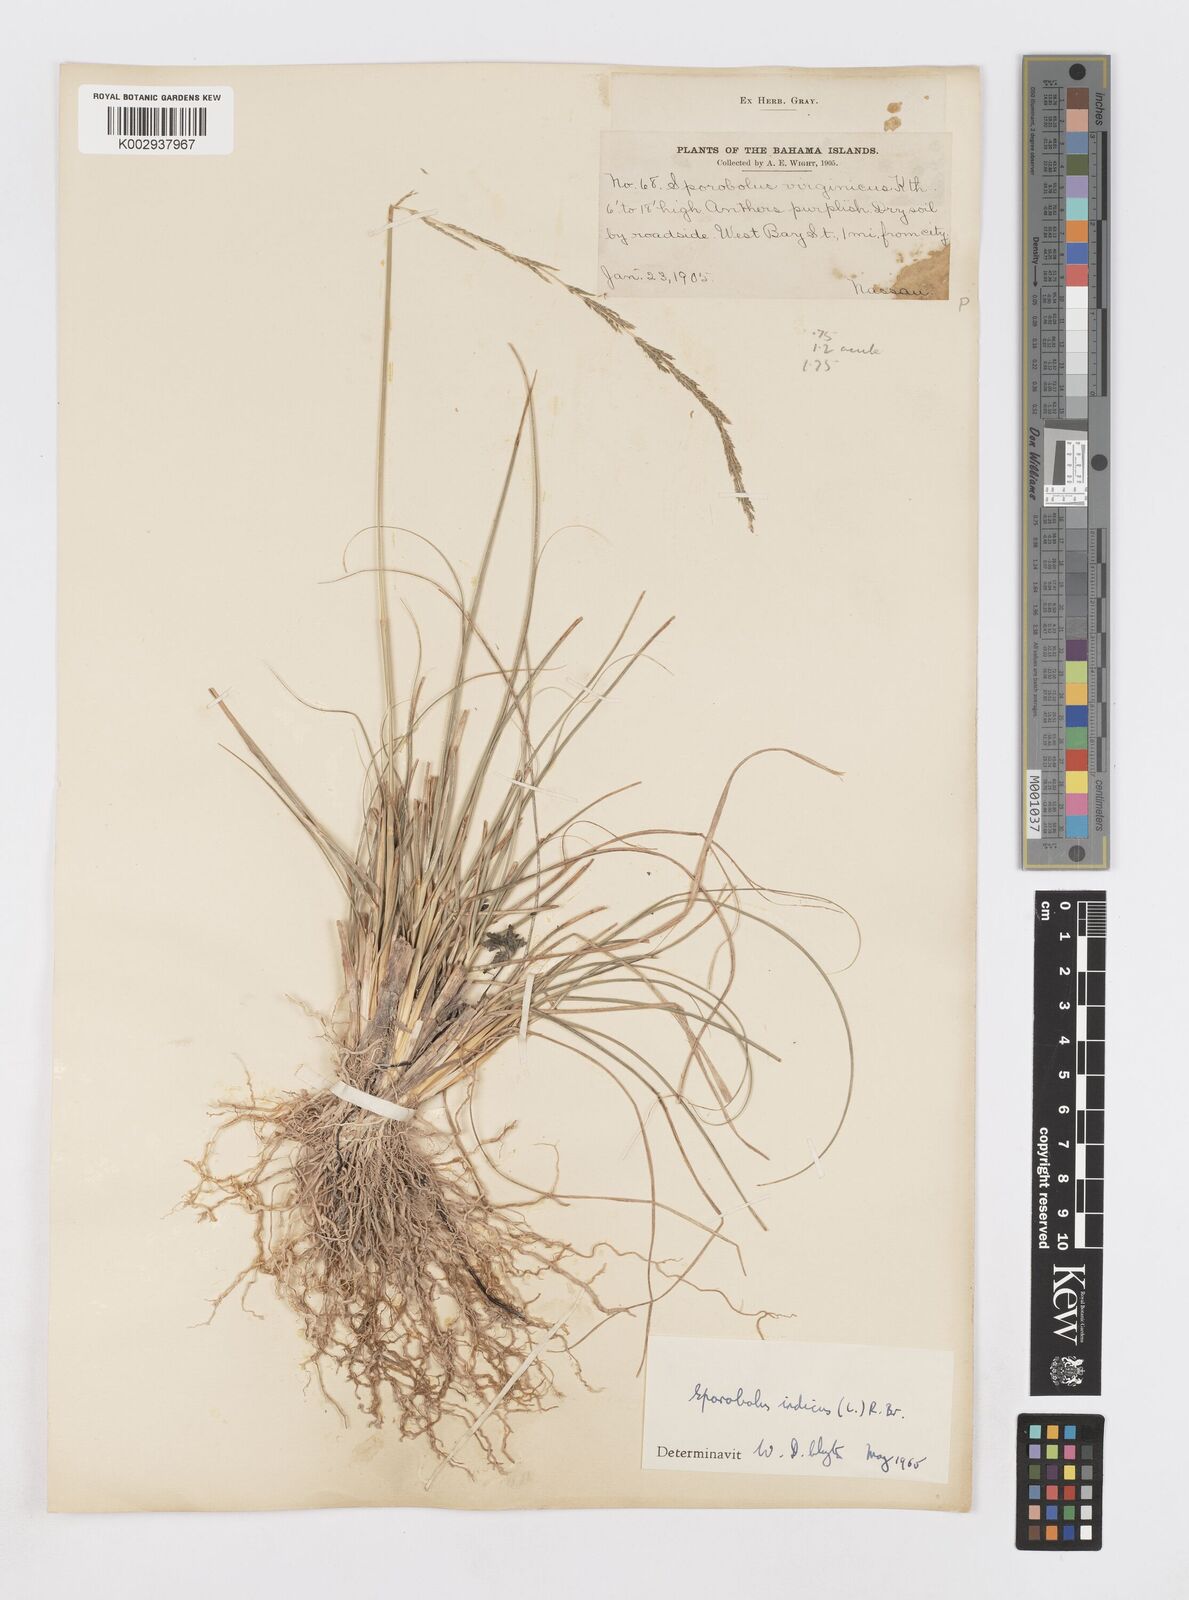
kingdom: Plantae
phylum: Tracheophyta
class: Liliopsida
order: Poales
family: Poaceae
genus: Sporobolus
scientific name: Sporobolus indicus
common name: Smut grass
